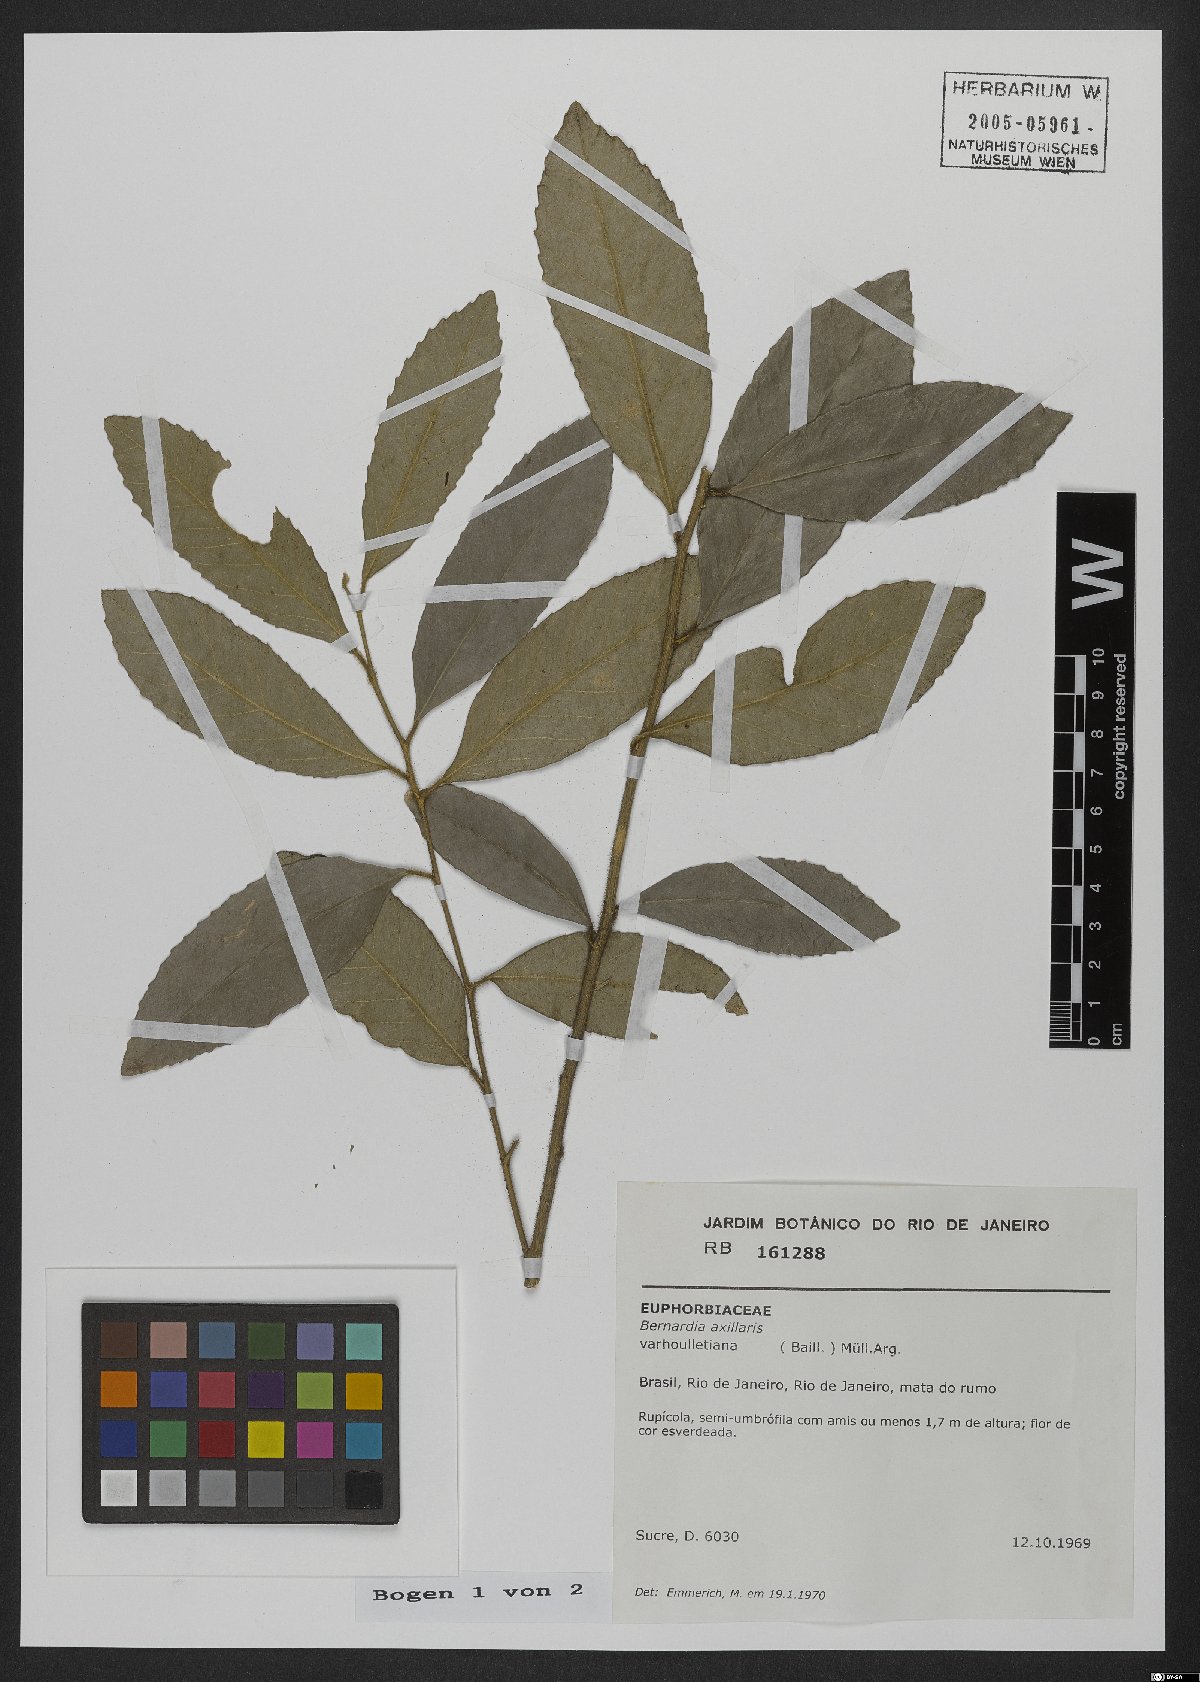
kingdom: Plantae
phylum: Tracheophyta
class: Magnoliopsida
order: Malpighiales
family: Euphorbiaceae
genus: Bernardia
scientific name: Bernardia axillaris
